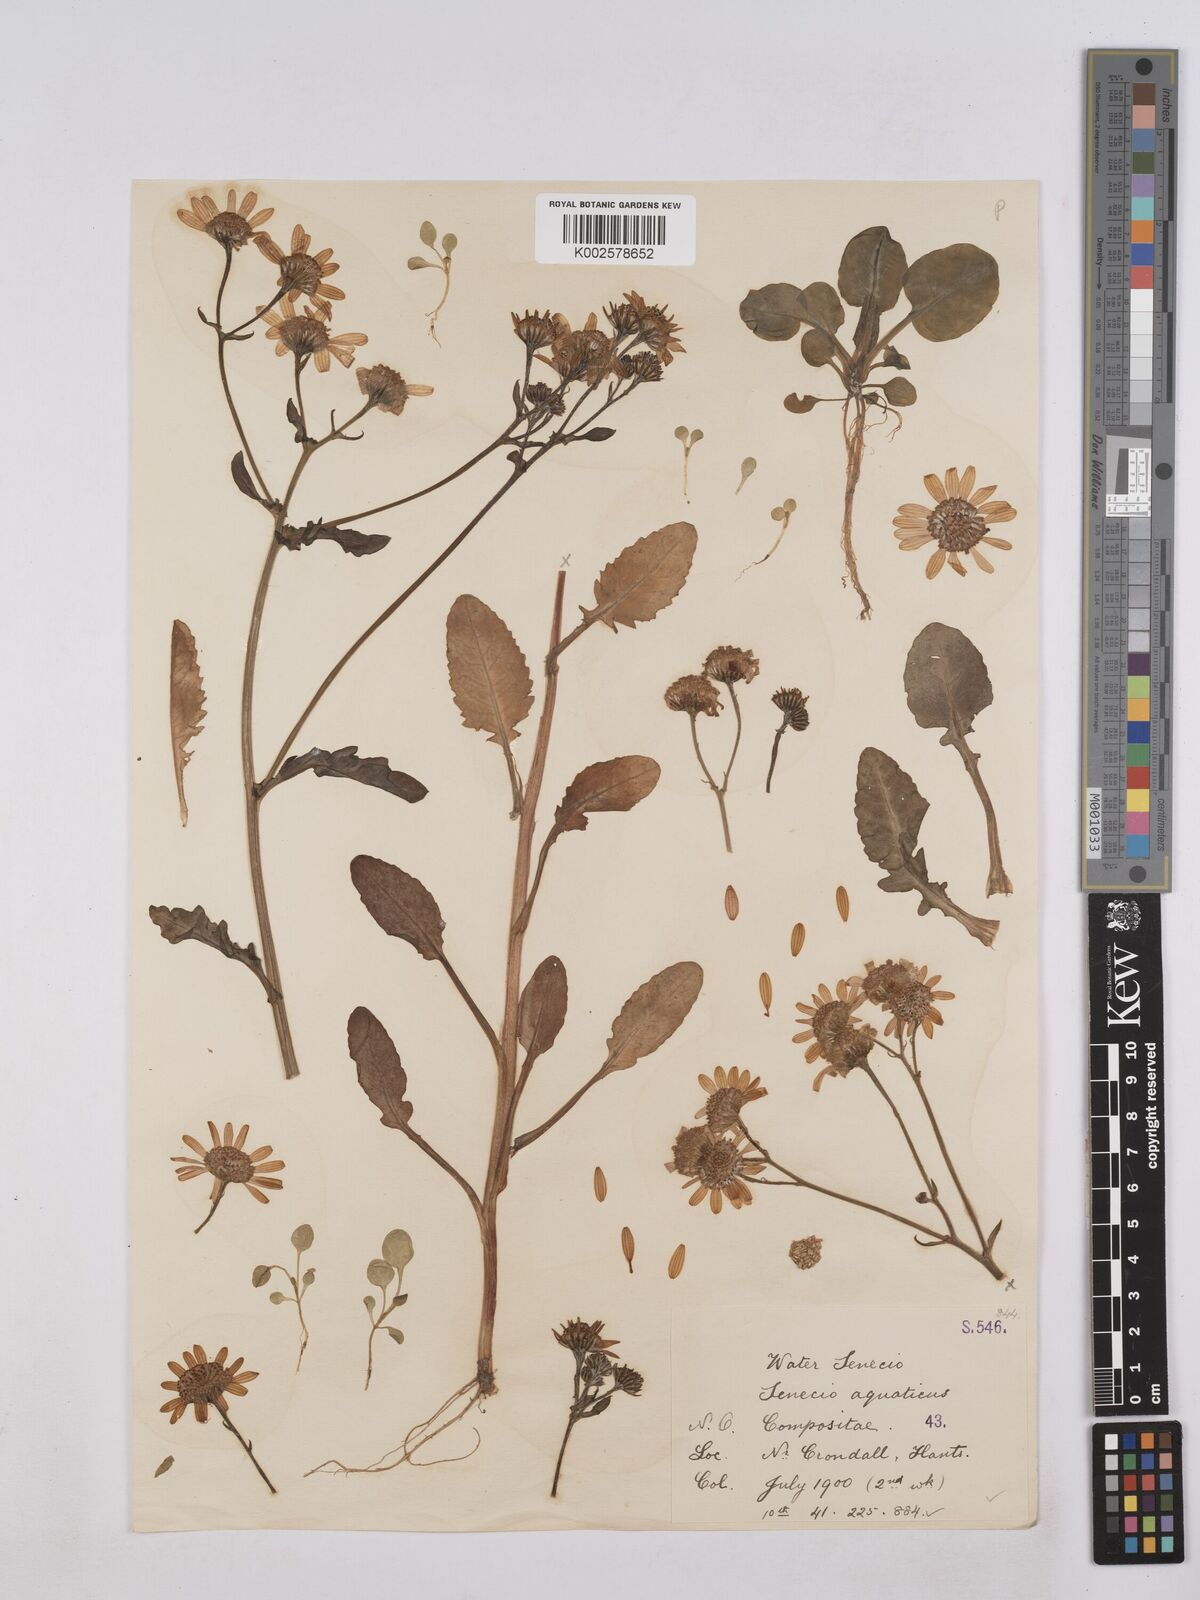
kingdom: Plantae
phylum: Tracheophyta
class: Magnoliopsida
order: Asterales
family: Asteraceae
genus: Jacobaea
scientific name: Jacobaea aquatica
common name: Water ragwort
